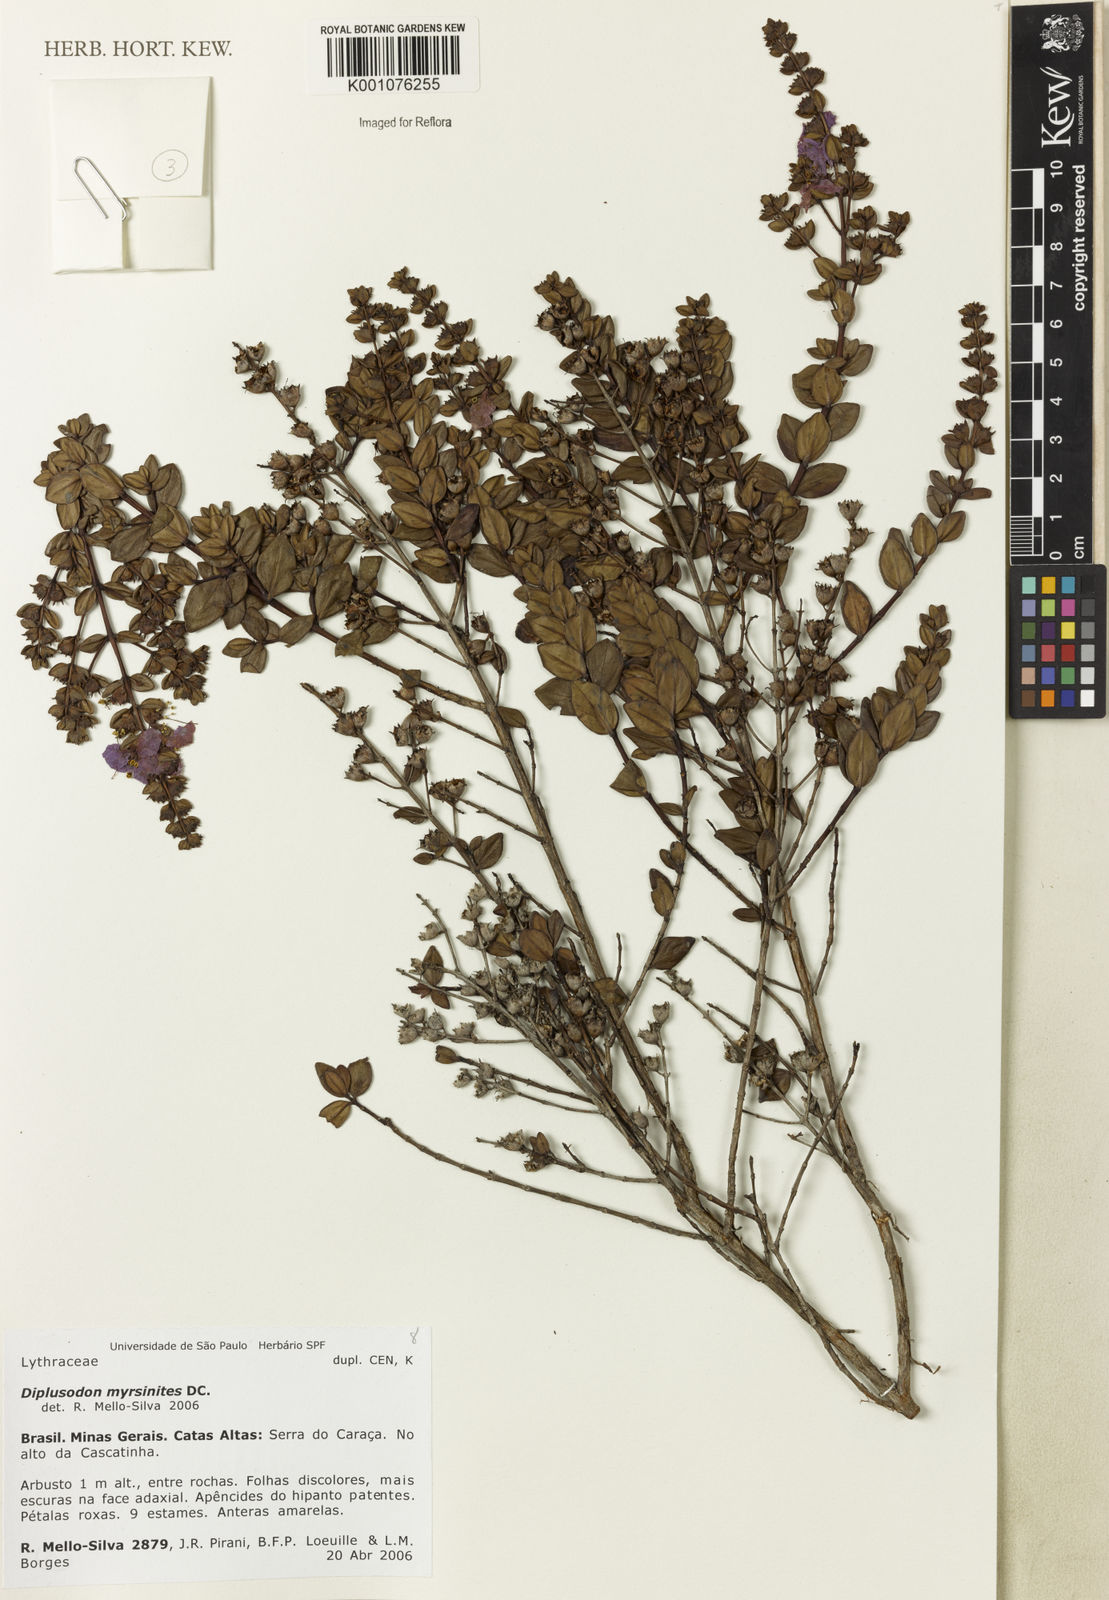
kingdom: Plantae
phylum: Tracheophyta
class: Magnoliopsida
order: Myrtales
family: Lythraceae
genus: Diplusodon
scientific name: Diplusodon myrsinites
